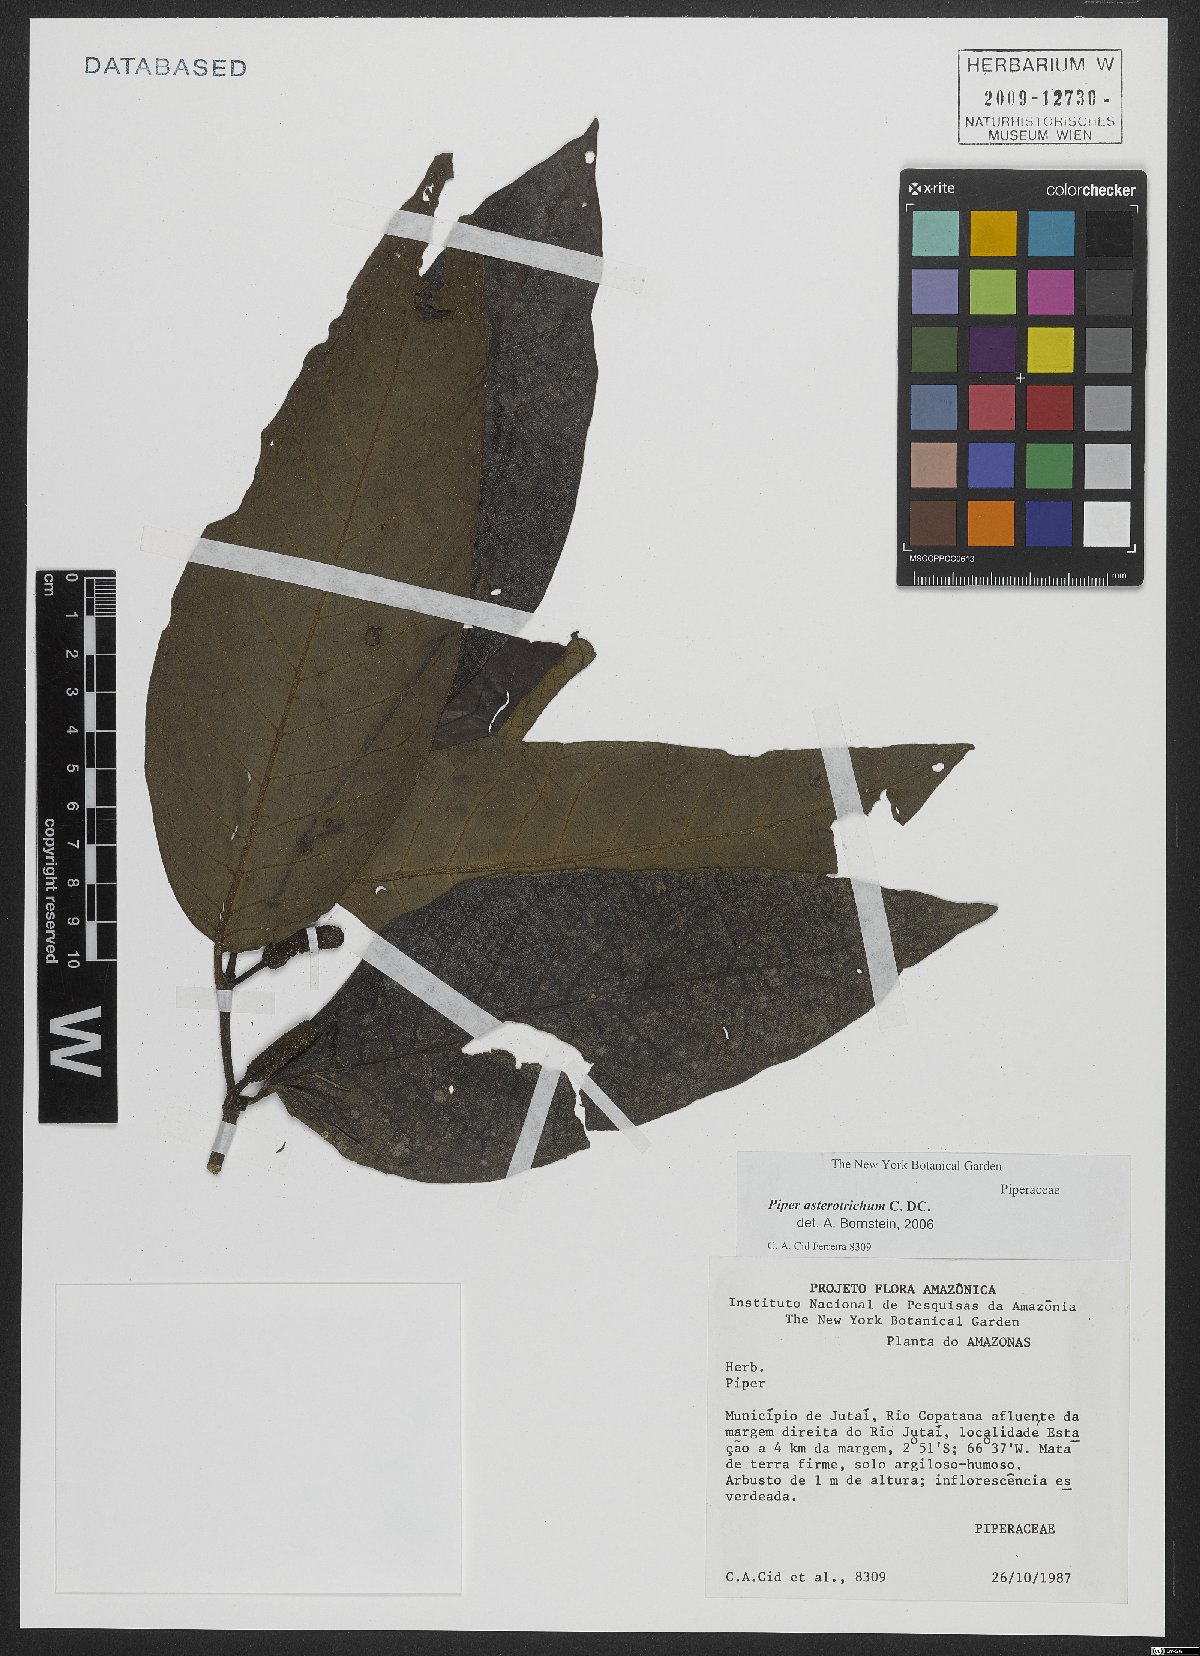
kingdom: Plantae
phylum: Tracheophyta
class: Magnoliopsida
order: Piperales
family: Piperaceae
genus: Piper
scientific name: Piper asterotrichum
